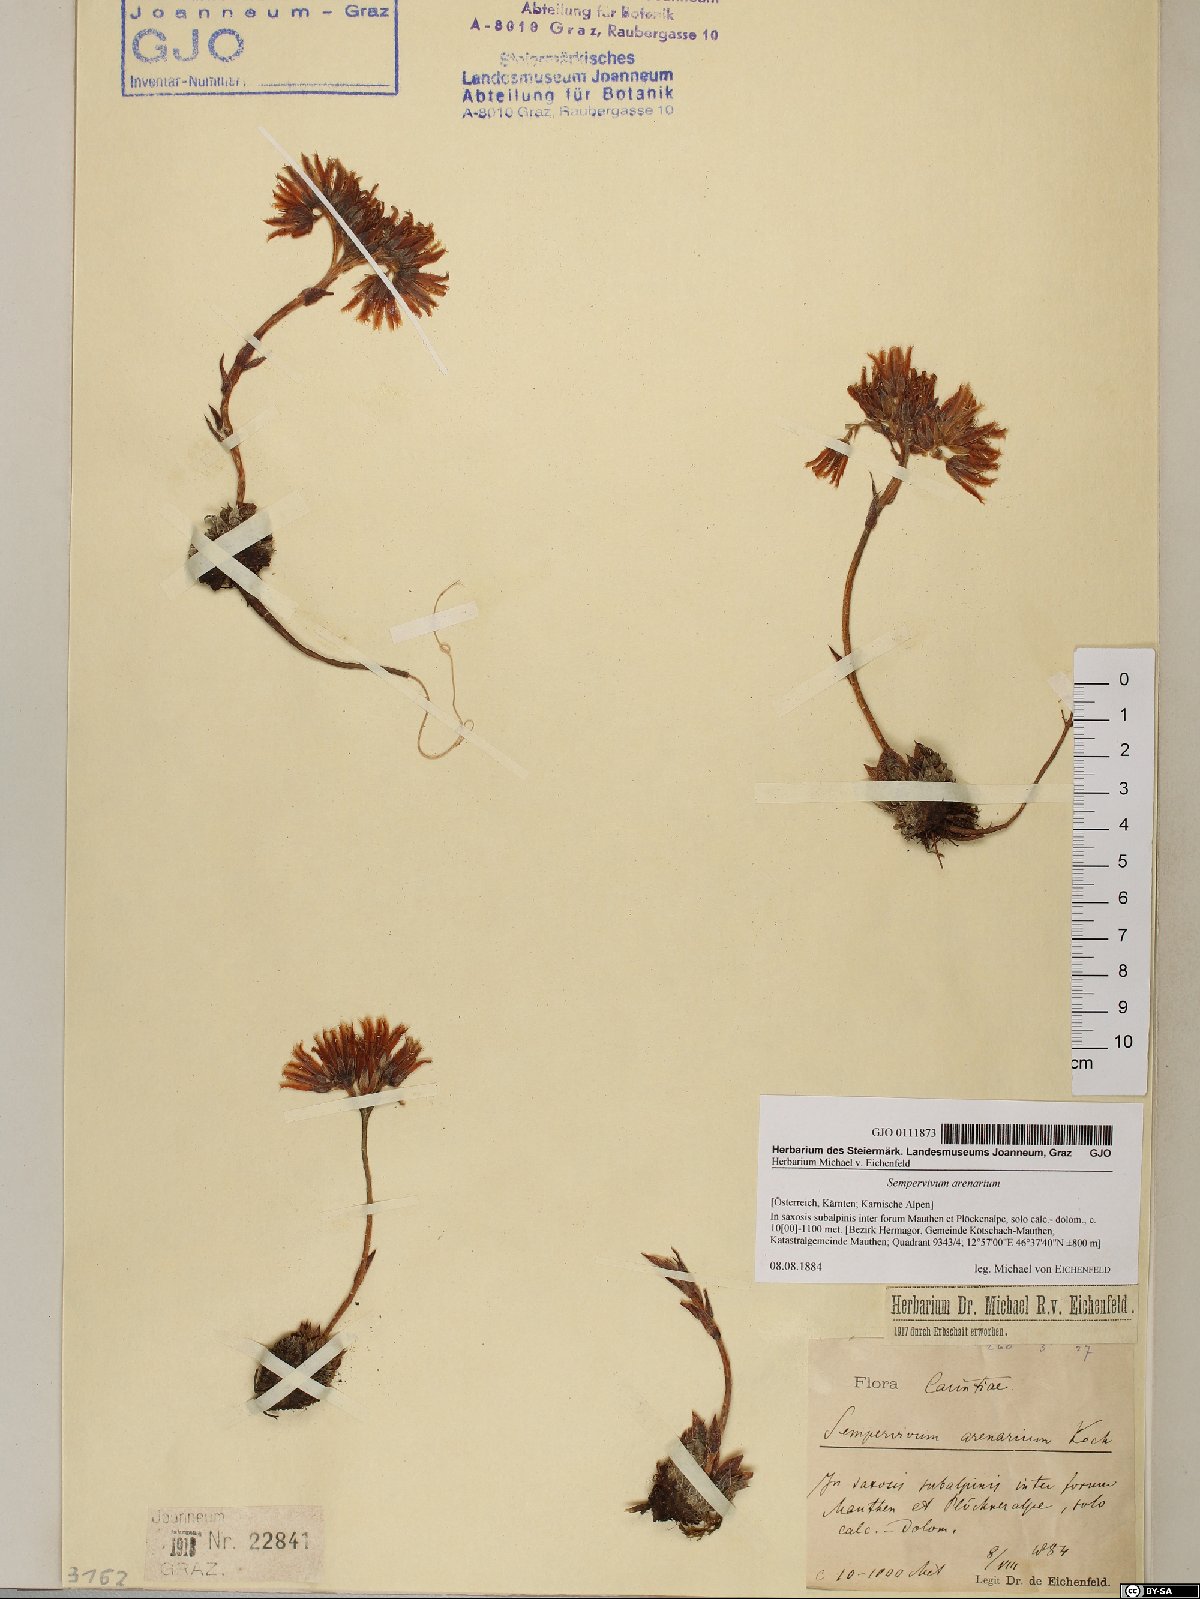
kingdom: Plantae
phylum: Tracheophyta
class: Magnoliopsida
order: Saxifragales
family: Crassulaceae
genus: Sempervivum
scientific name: Sempervivum globiferum
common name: Rolling hen-and-chicks
